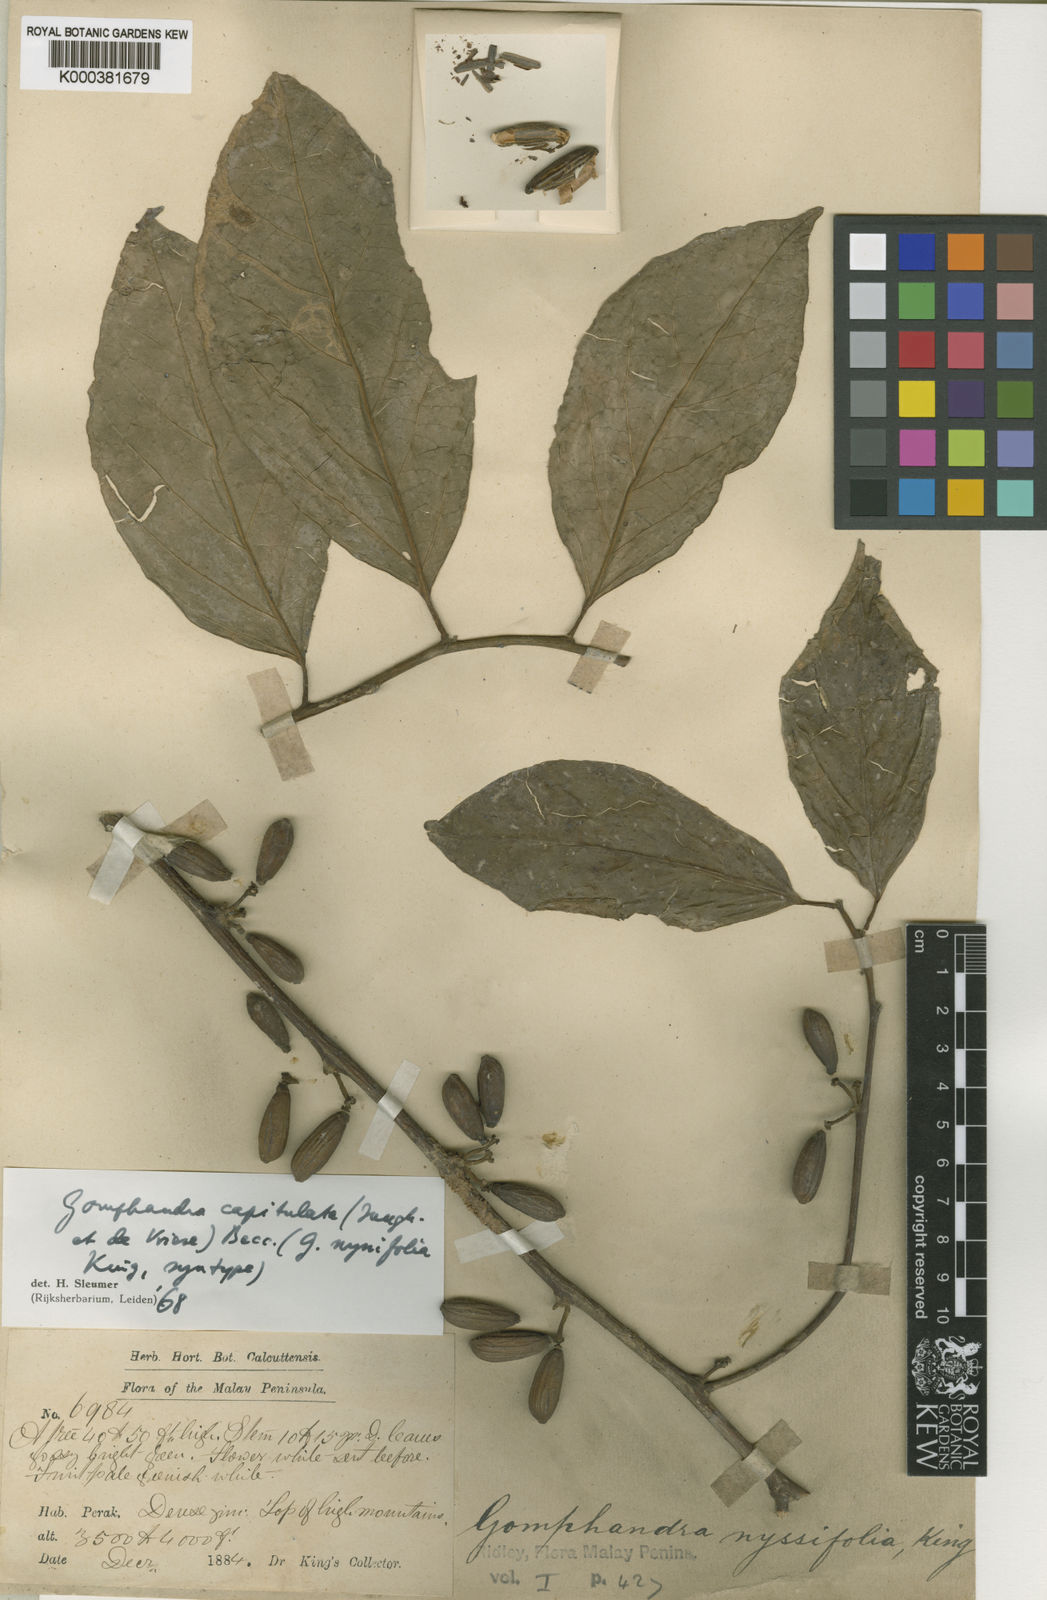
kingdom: Plantae
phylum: Tracheophyta
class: Magnoliopsida
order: Cardiopteridales
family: Stemonuraceae
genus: Gomphandra
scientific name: Gomphandra capitulata
